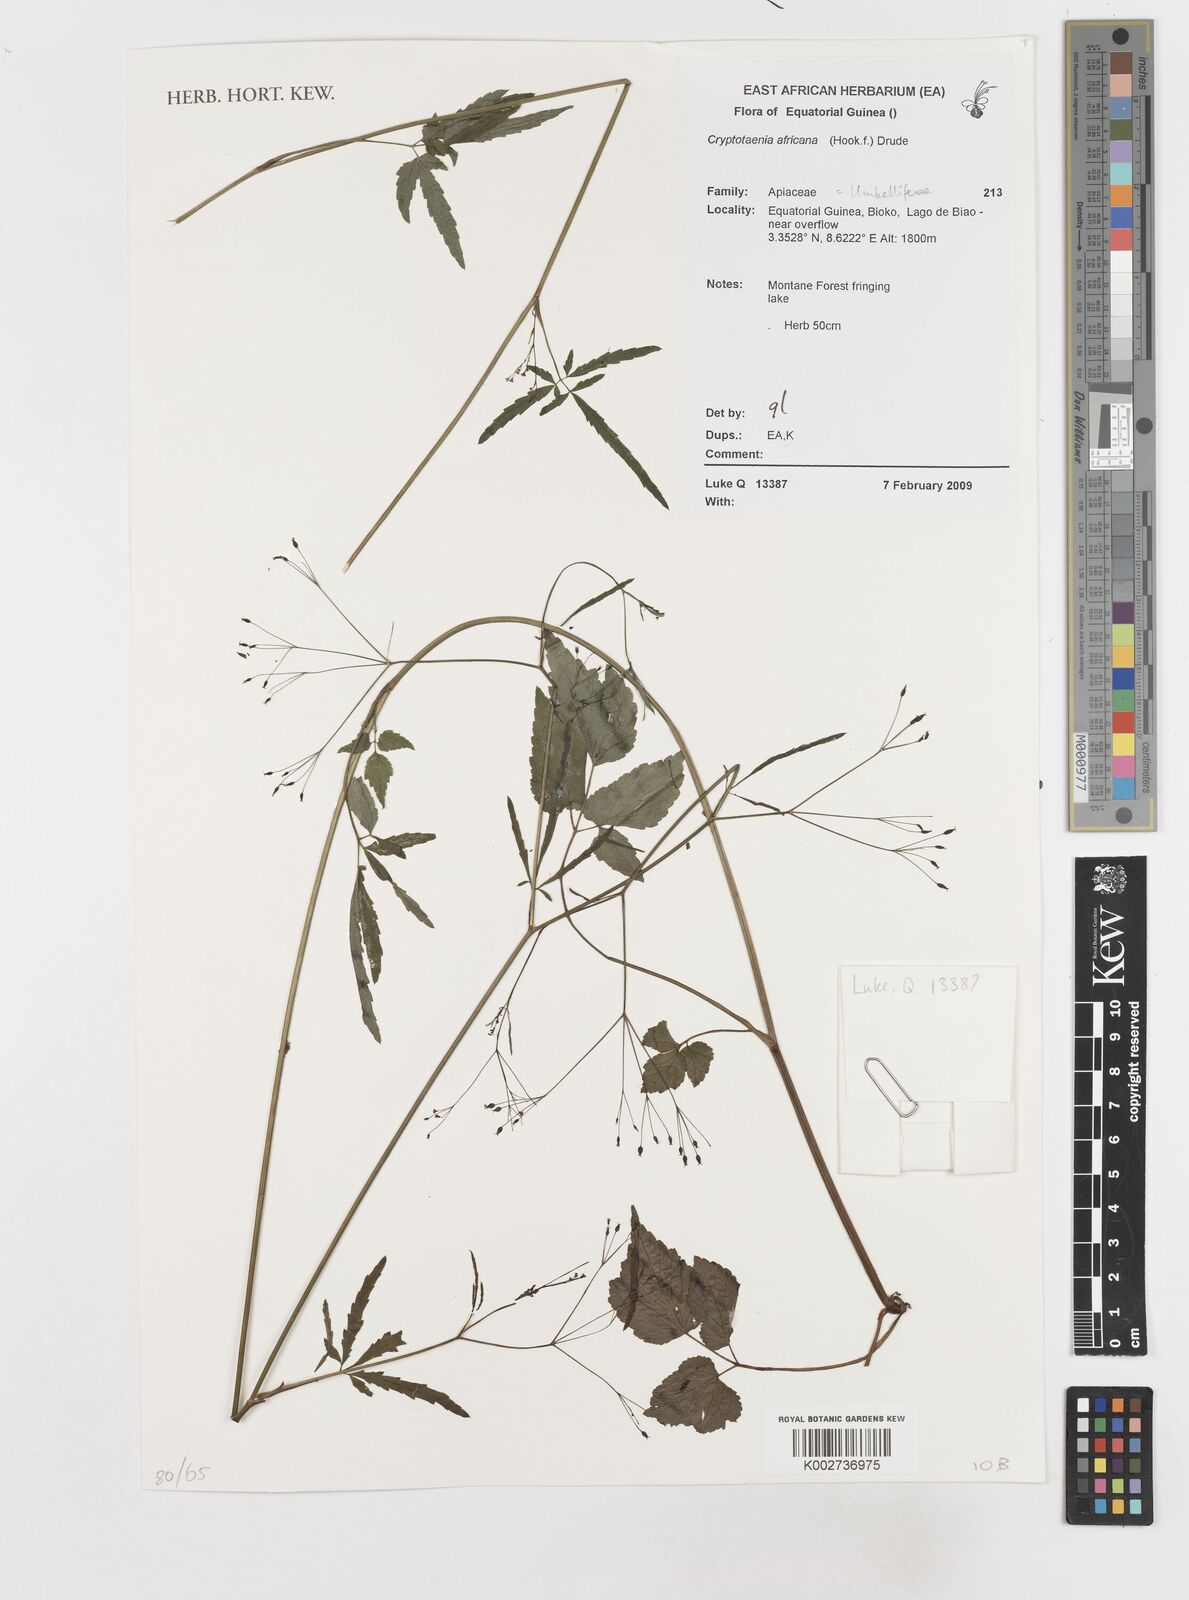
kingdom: Plantae
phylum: Tracheophyta
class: Magnoliopsida
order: Apiales
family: Apiaceae
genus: Cryptotaenia
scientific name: Cryptotaenia africana
